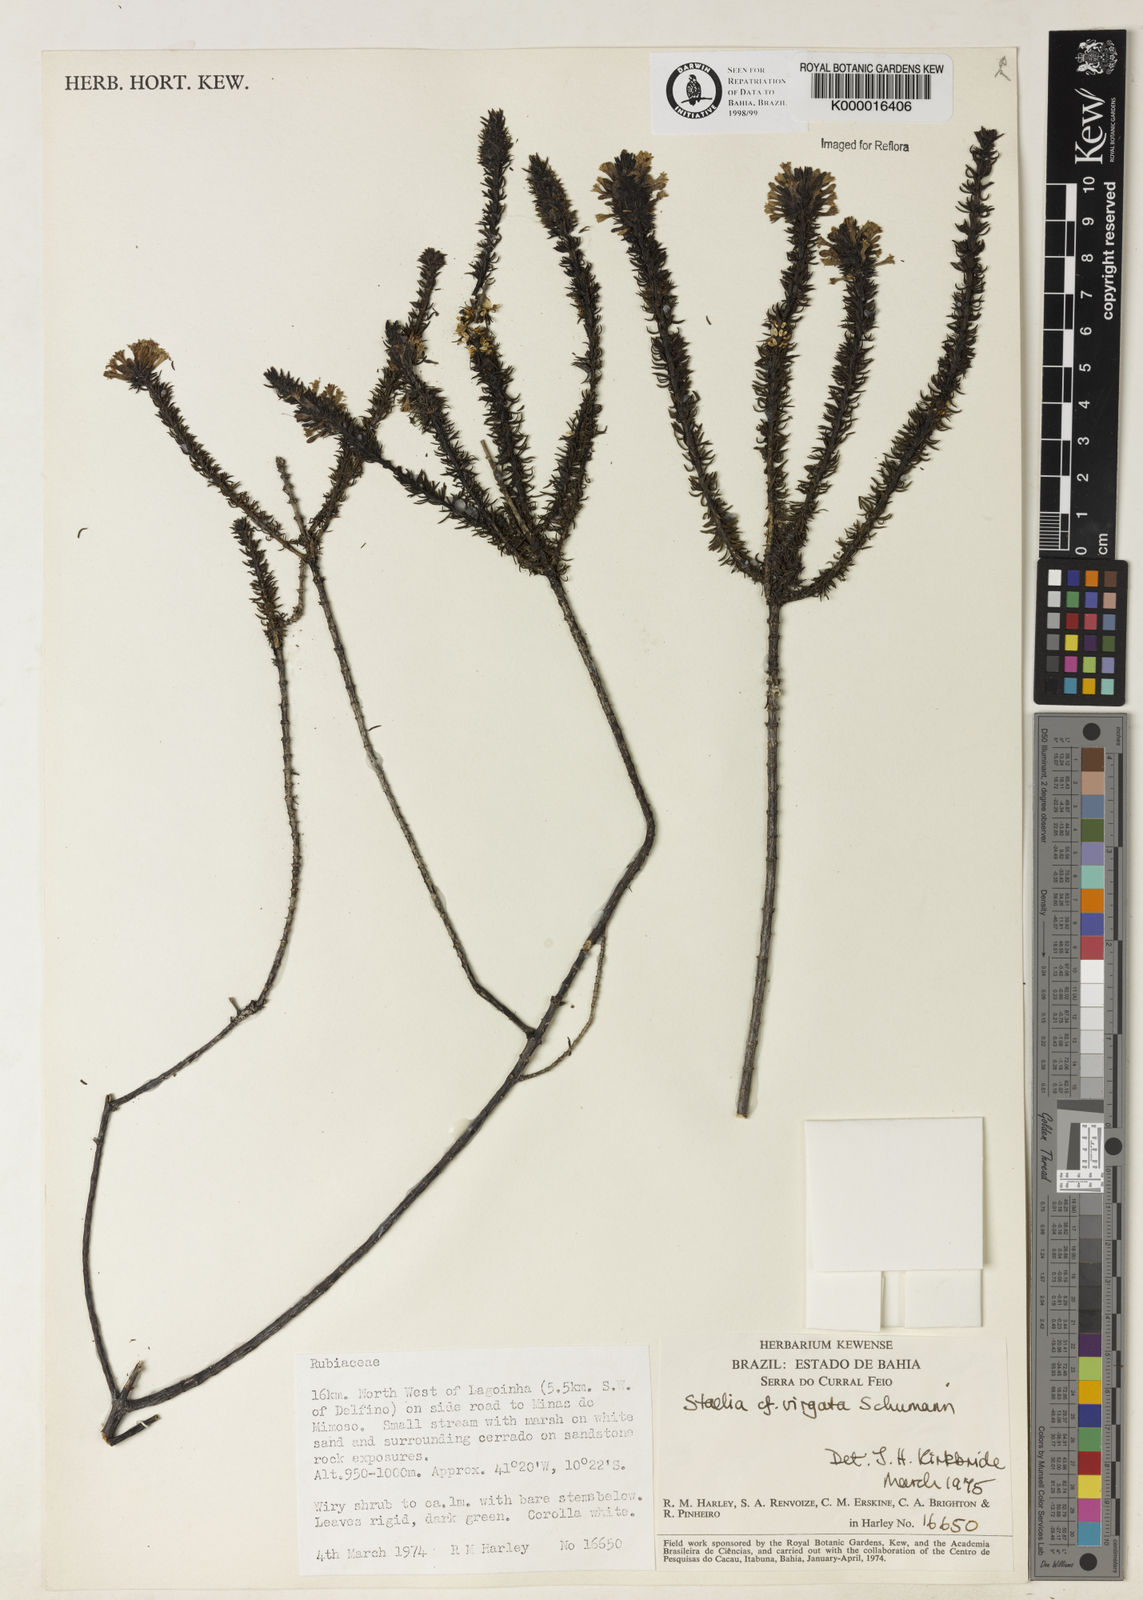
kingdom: Plantae
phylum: Tracheophyta
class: Magnoliopsida
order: Gentianales
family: Rubiaceae
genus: Staelia
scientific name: Staelia virgata
